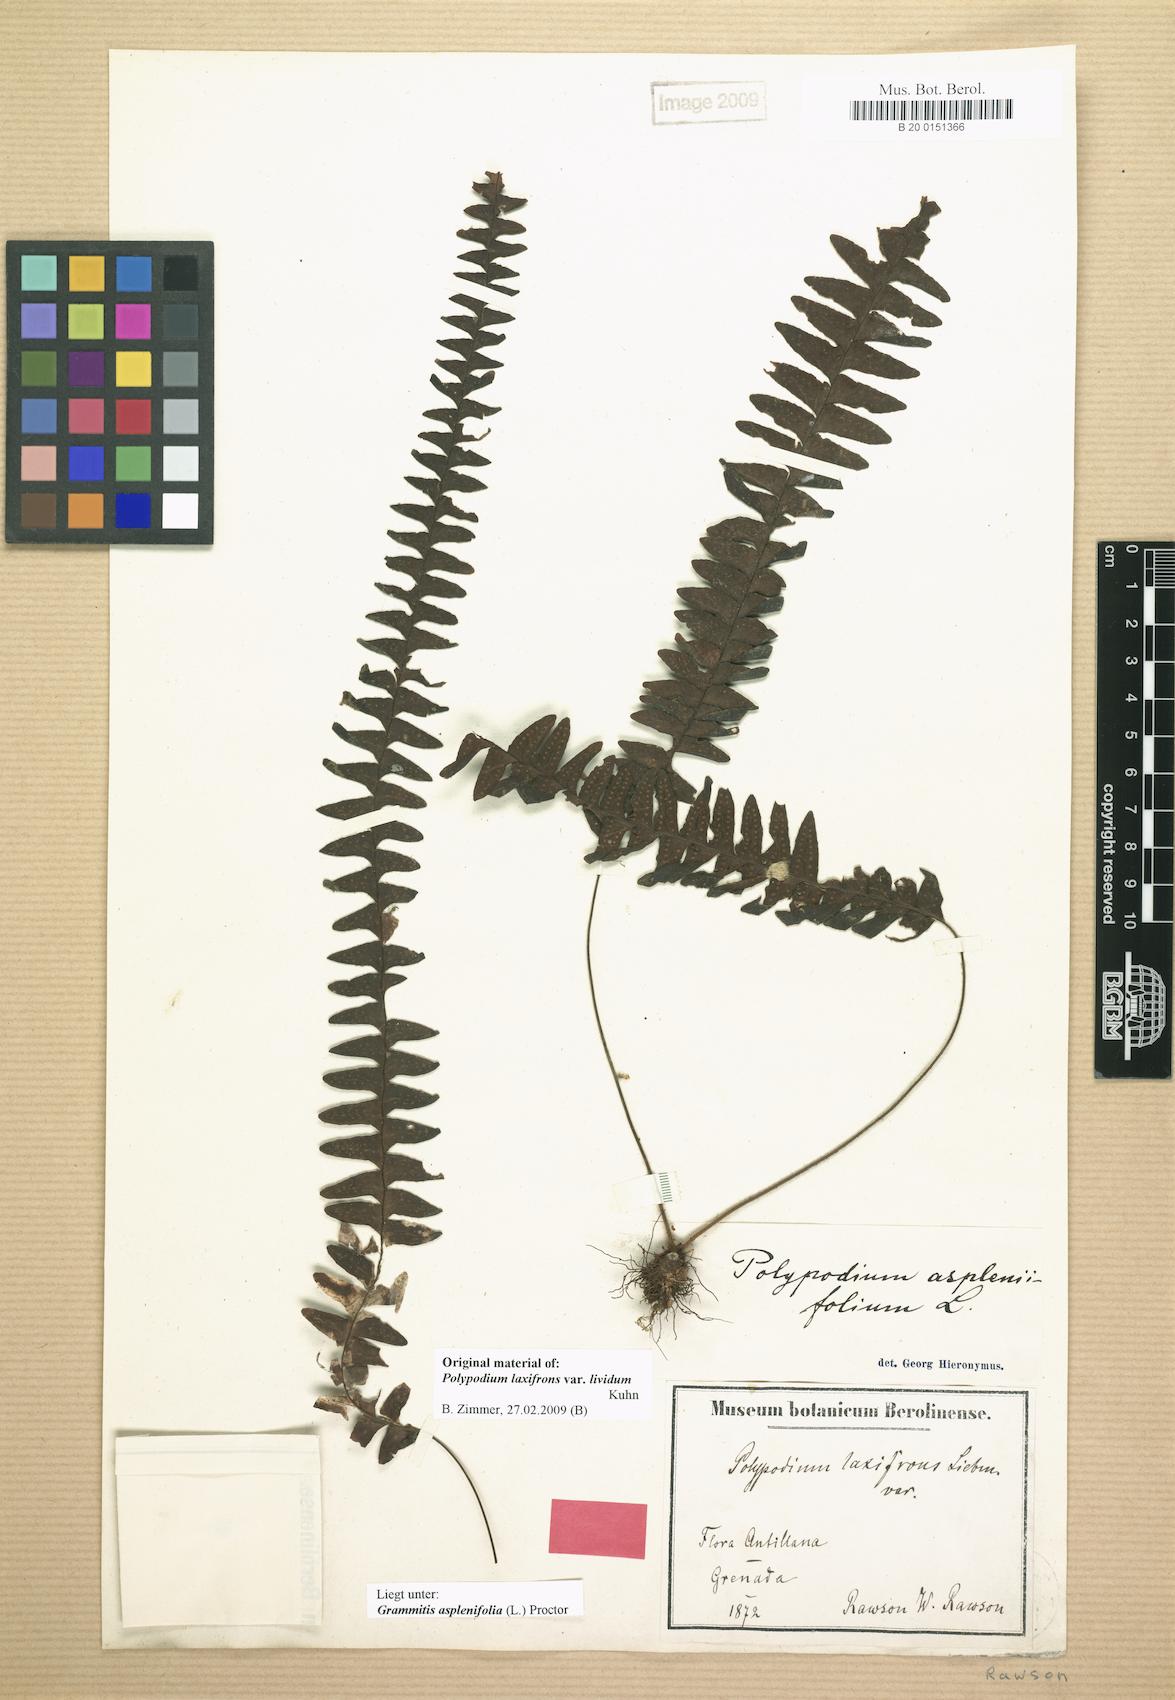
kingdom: Plantae
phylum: Tracheophyta
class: Polypodiopsida
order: Polypodiales
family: Polypodiaceae
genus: Terpsichore
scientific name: Terpsichore asplenifolia
